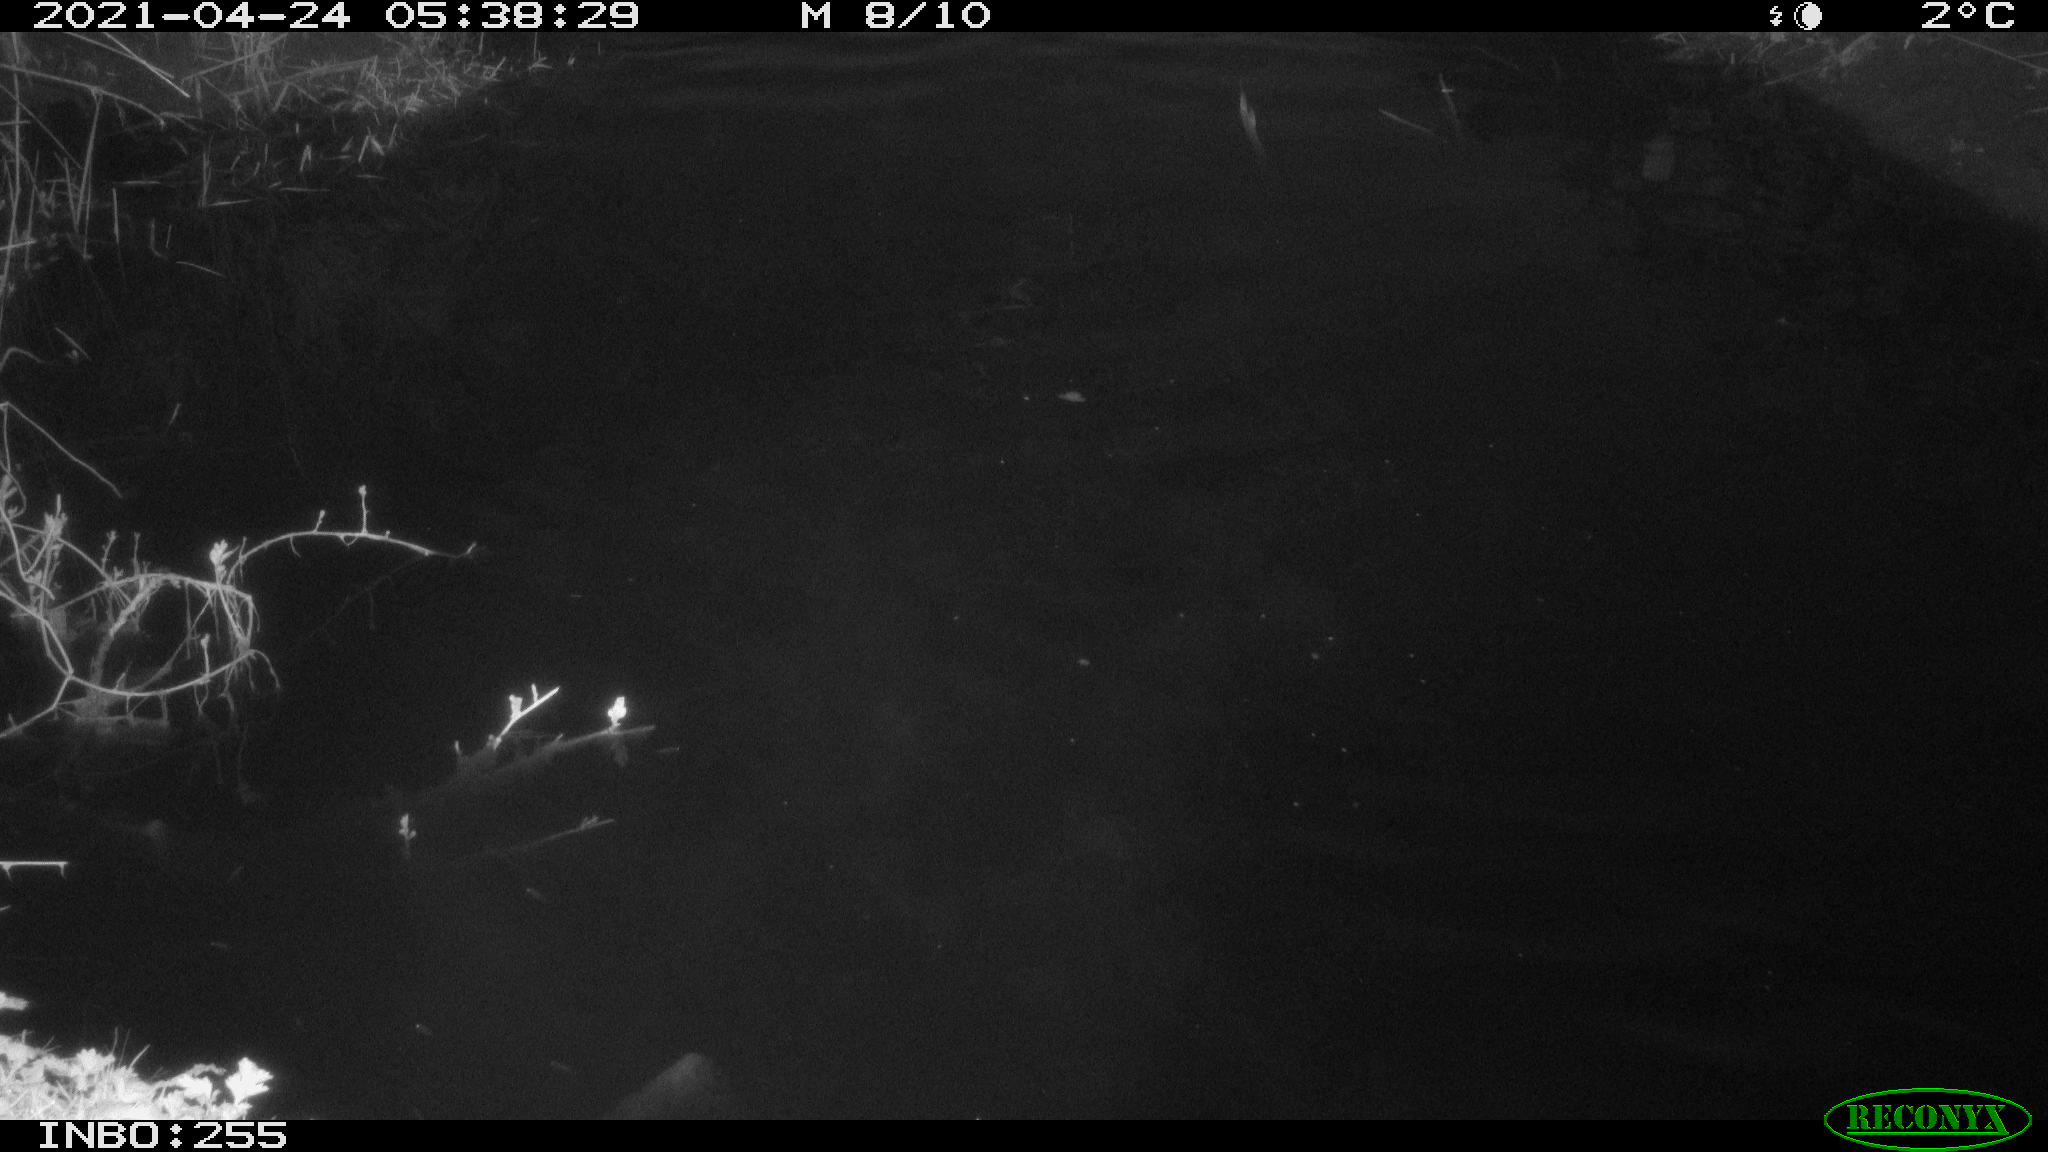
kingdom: Animalia
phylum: Chordata
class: Aves
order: Anseriformes
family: Anatidae
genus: Anas
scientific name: Anas platyrhynchos
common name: Mallard
